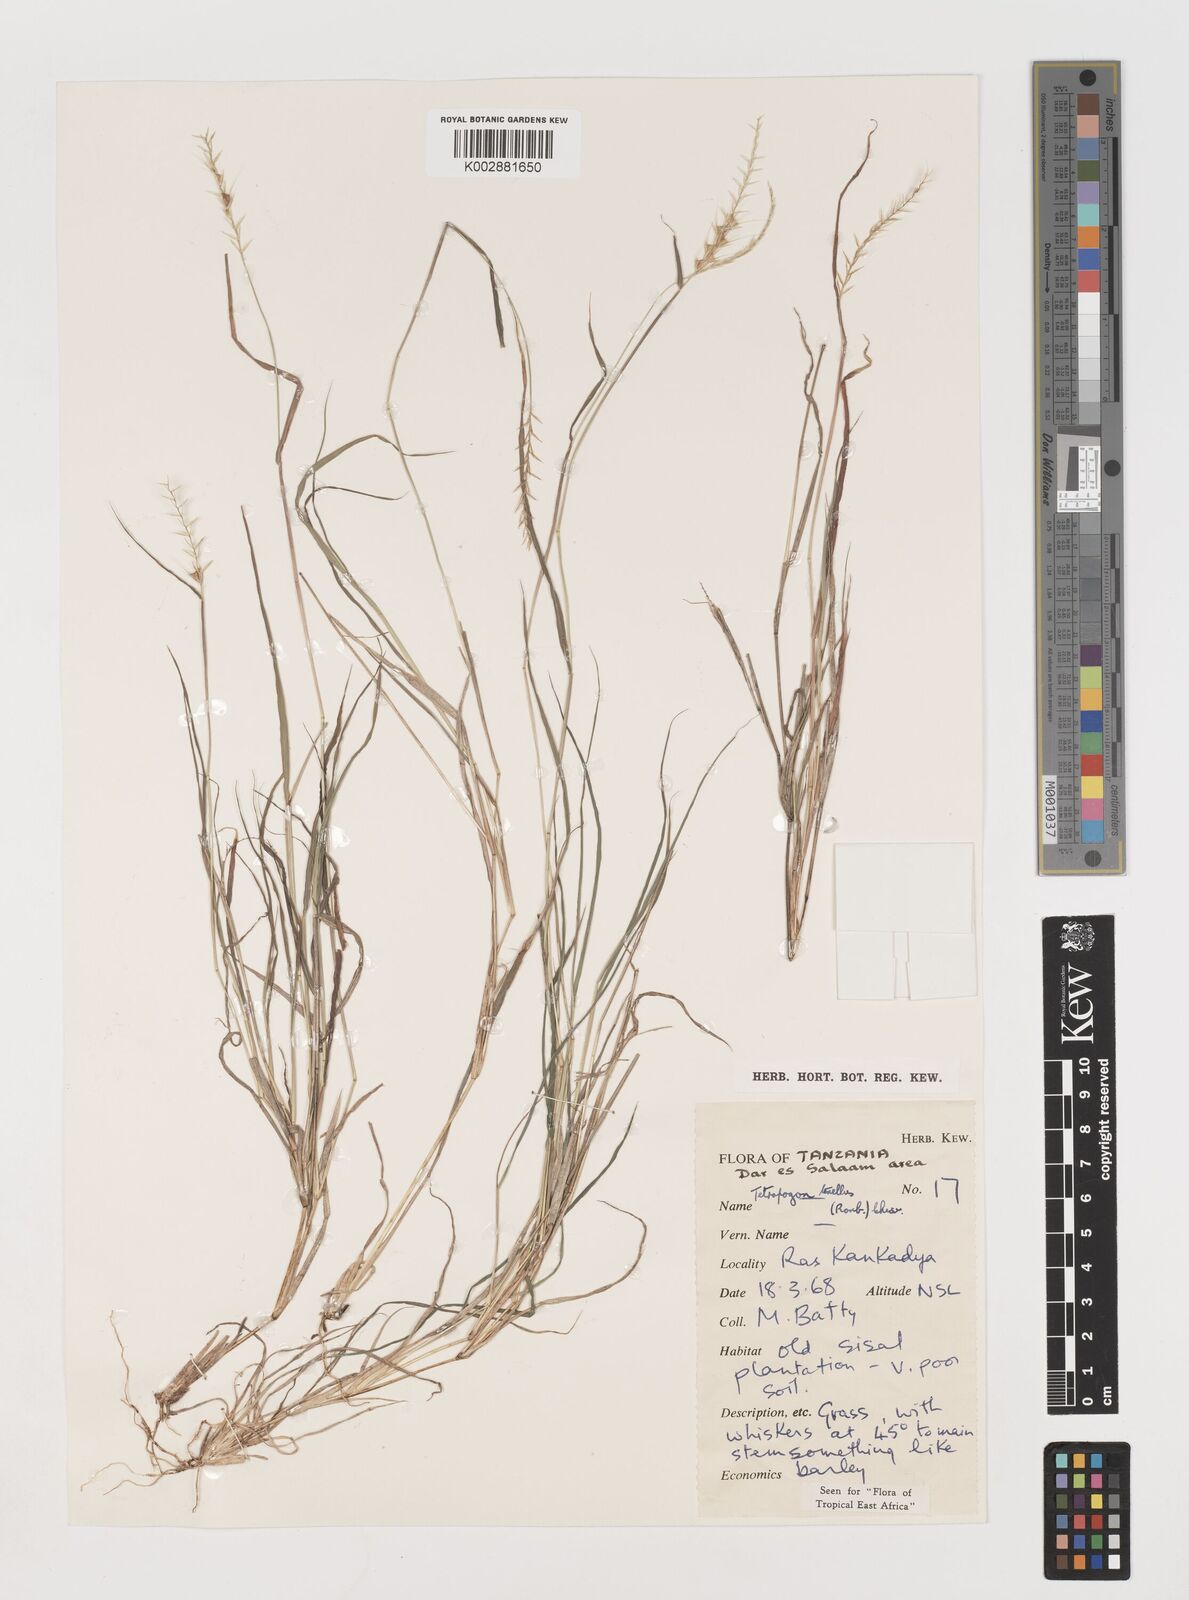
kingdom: Plantae
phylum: Tracheophyta
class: Liliopsida
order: Poales
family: Poaceae
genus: Tetrapogon
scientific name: Tetrapogon tenellus
